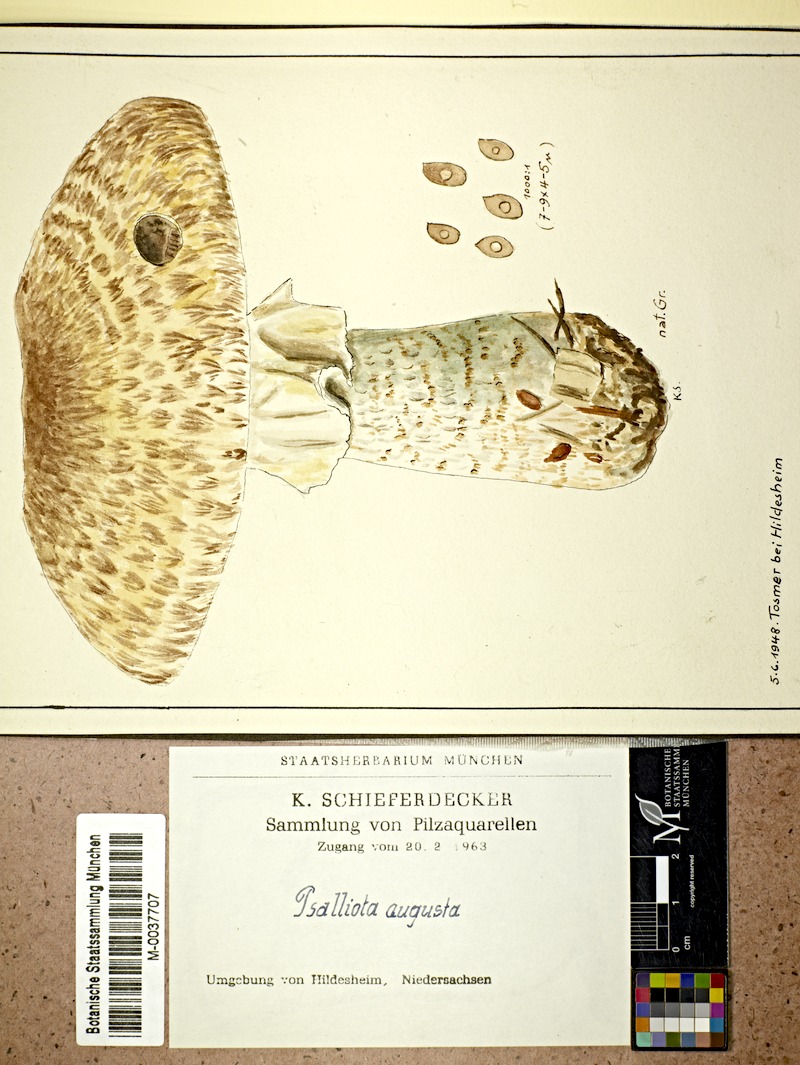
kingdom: Fungi
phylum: Basidiomycota
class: Agaricomycetes
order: Agaricales
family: Agaricaceae
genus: Agaricus
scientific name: Agaricus augustus
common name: Prince
